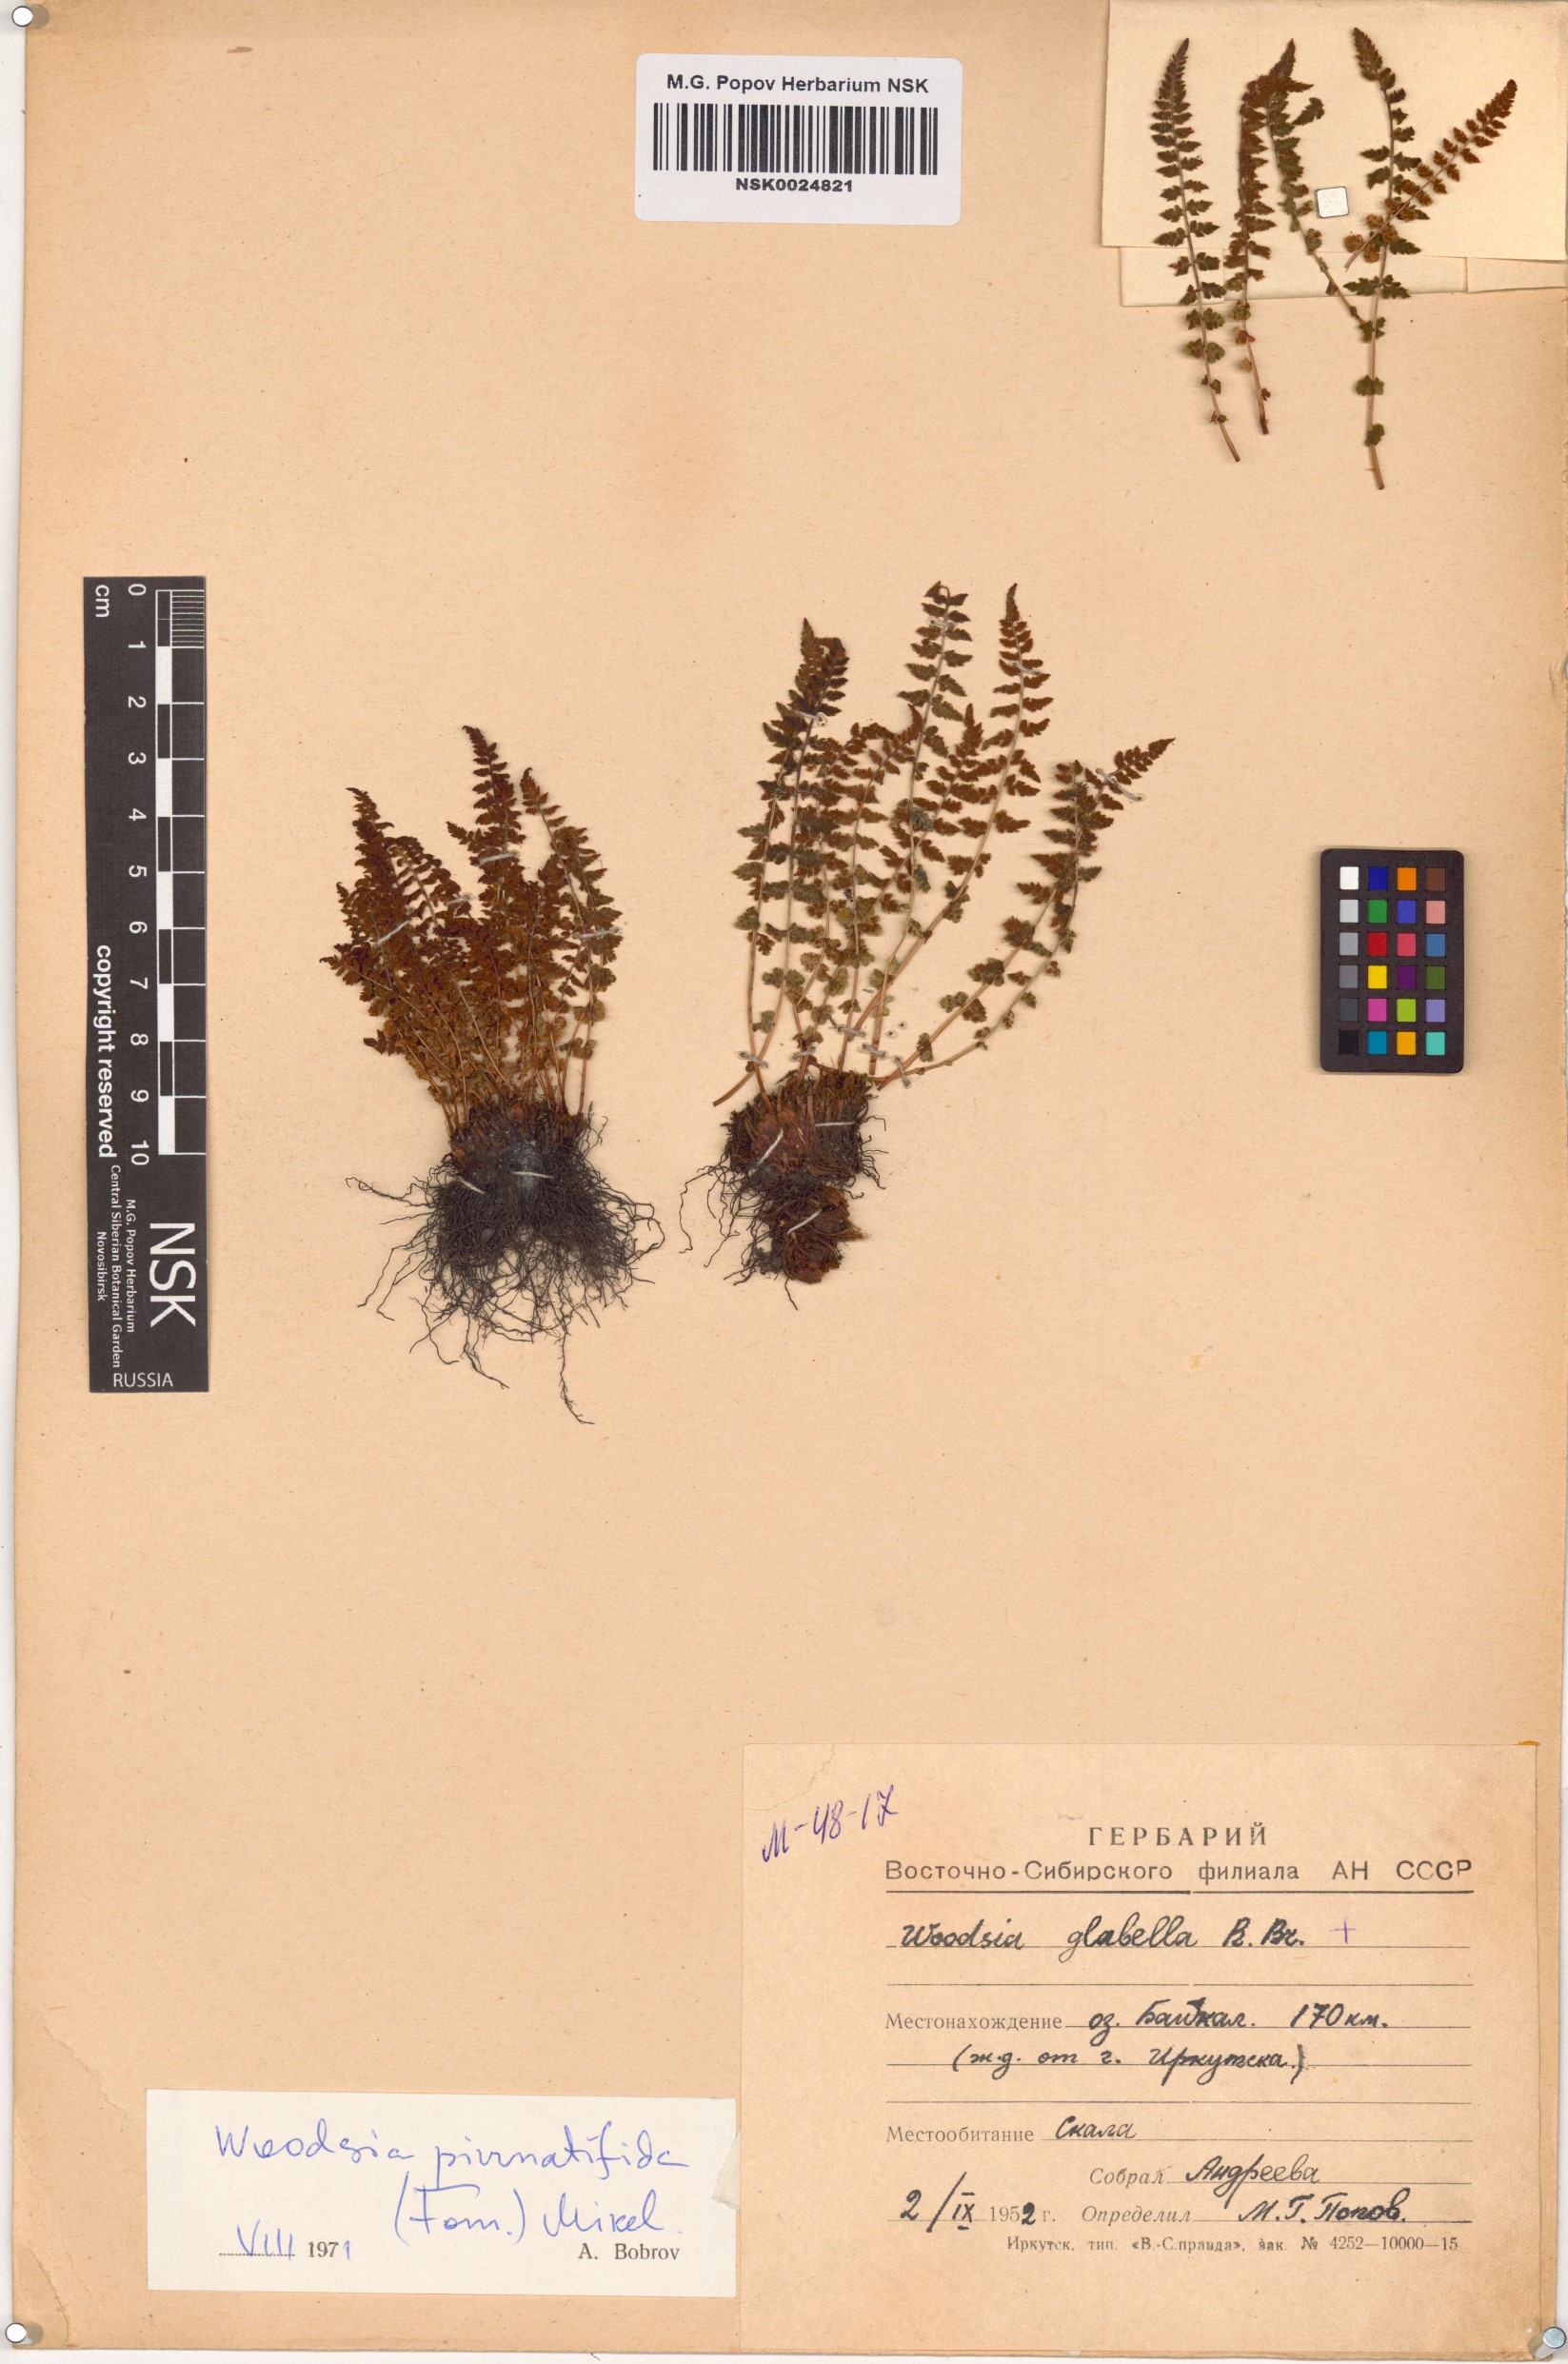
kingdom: Plantae
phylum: Tracheophyta
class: Polypodiopsida
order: Polypodiales
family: Woodsiaceae
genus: Woodsia
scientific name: Woodsia pulchella
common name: Graceful woodsia
